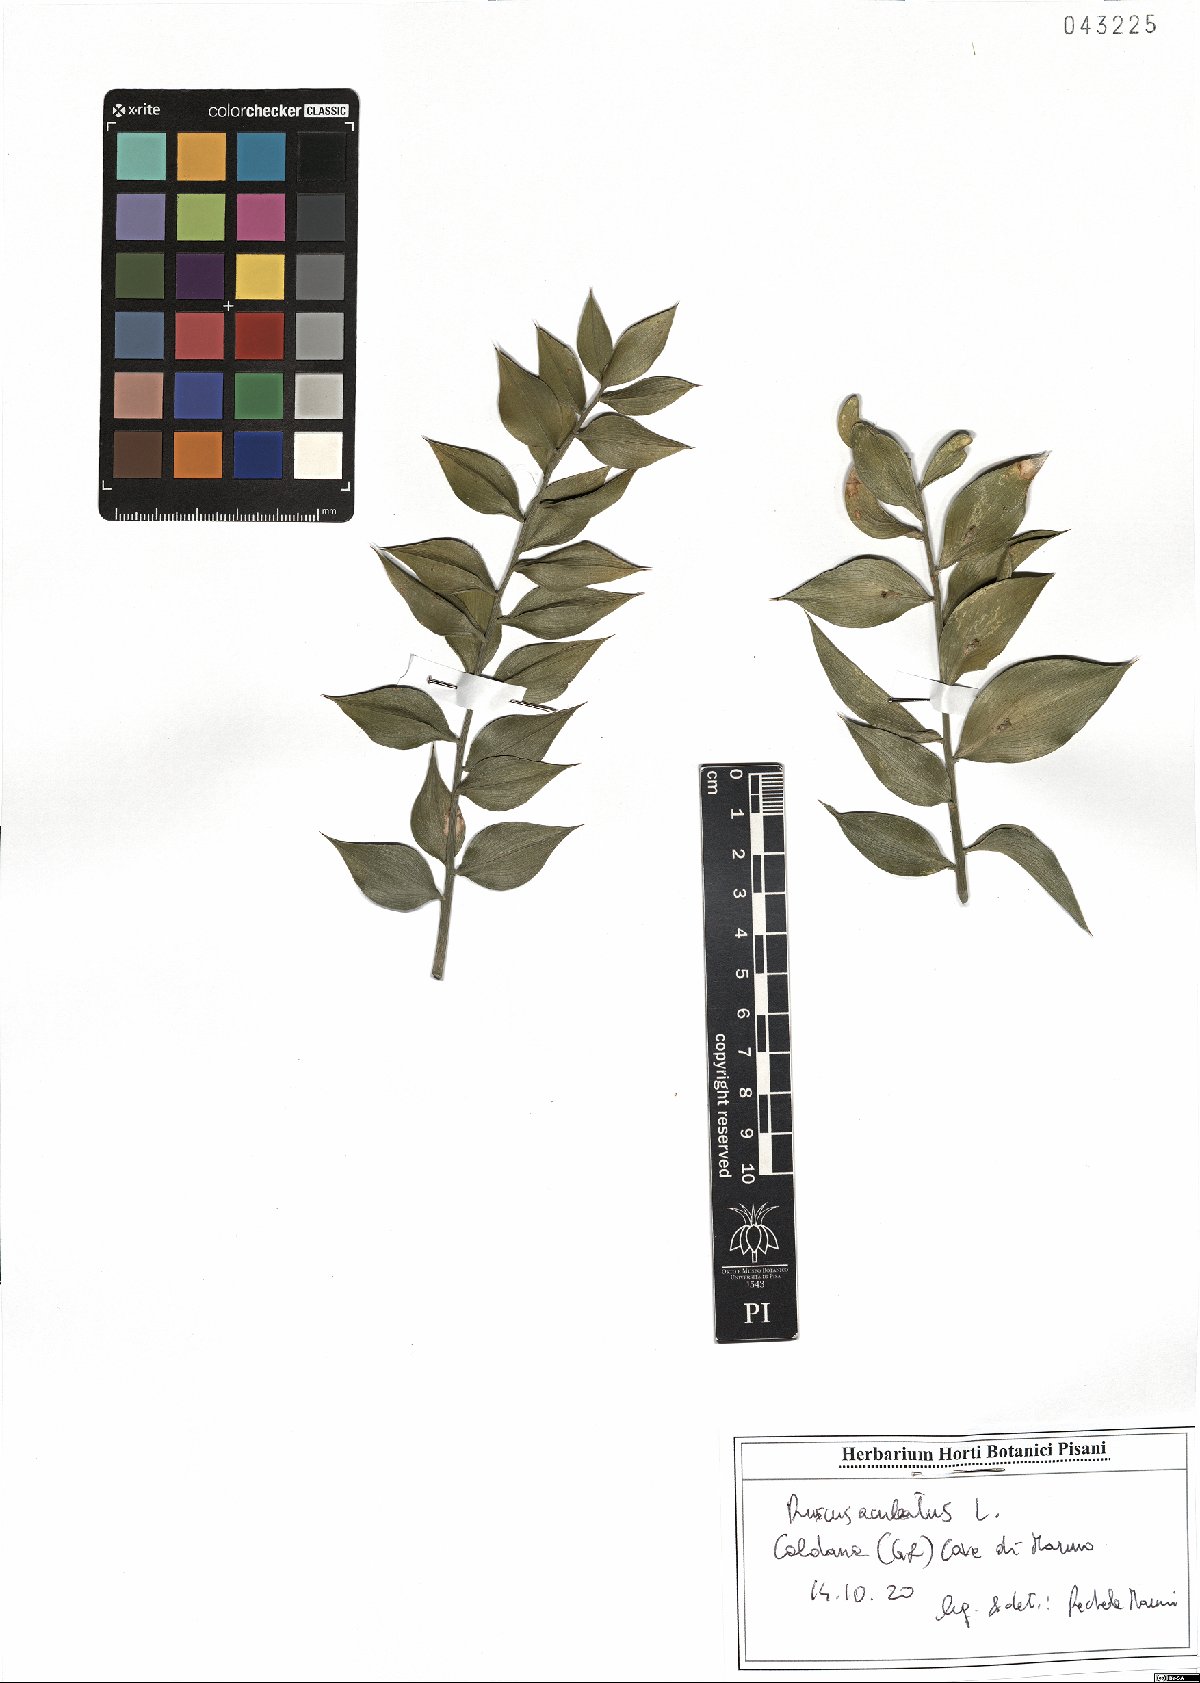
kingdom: Plantae
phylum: Tracheophyta
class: Liliopsida
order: Asparagales
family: Asparagaceae
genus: Ruscus
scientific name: Ruscus aculeatus
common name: Butcher's-broom
